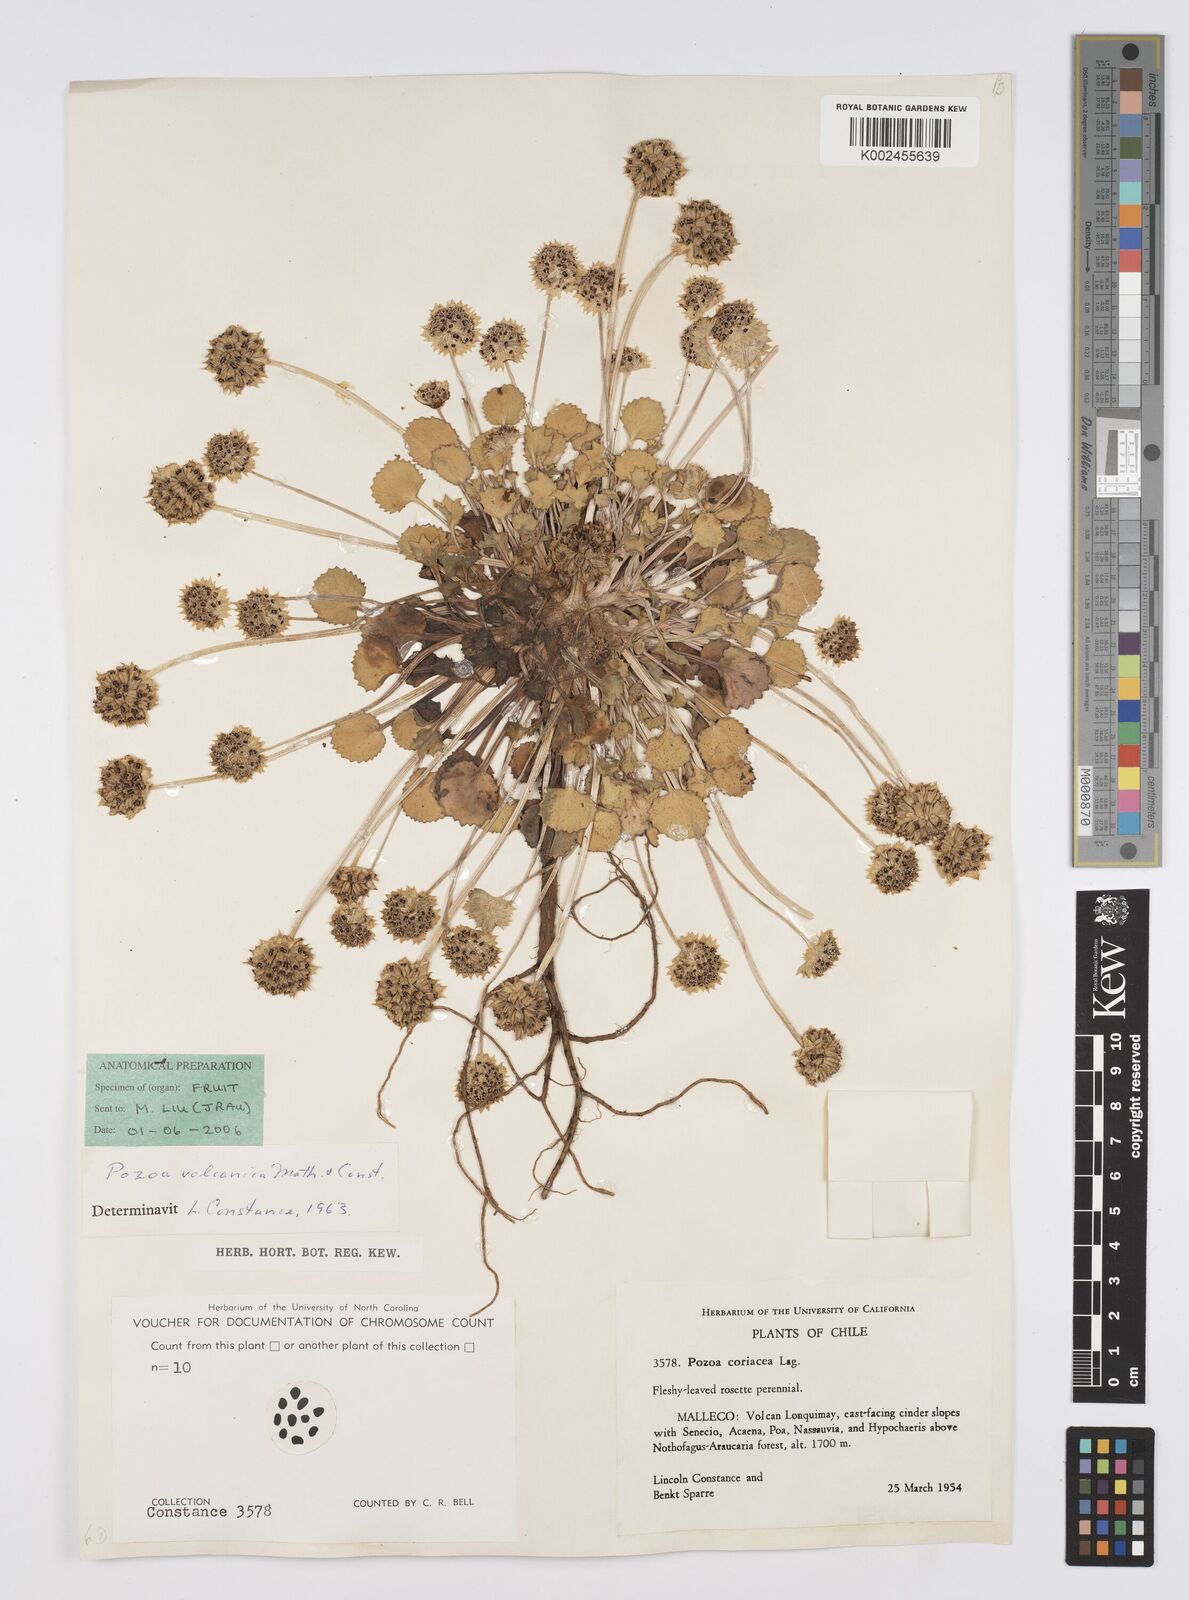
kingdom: Plantae
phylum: Tracheophyta
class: Magnoliopsida
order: Apiales
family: Apiaceae
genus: Pozoa
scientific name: Pozoa volcanica
